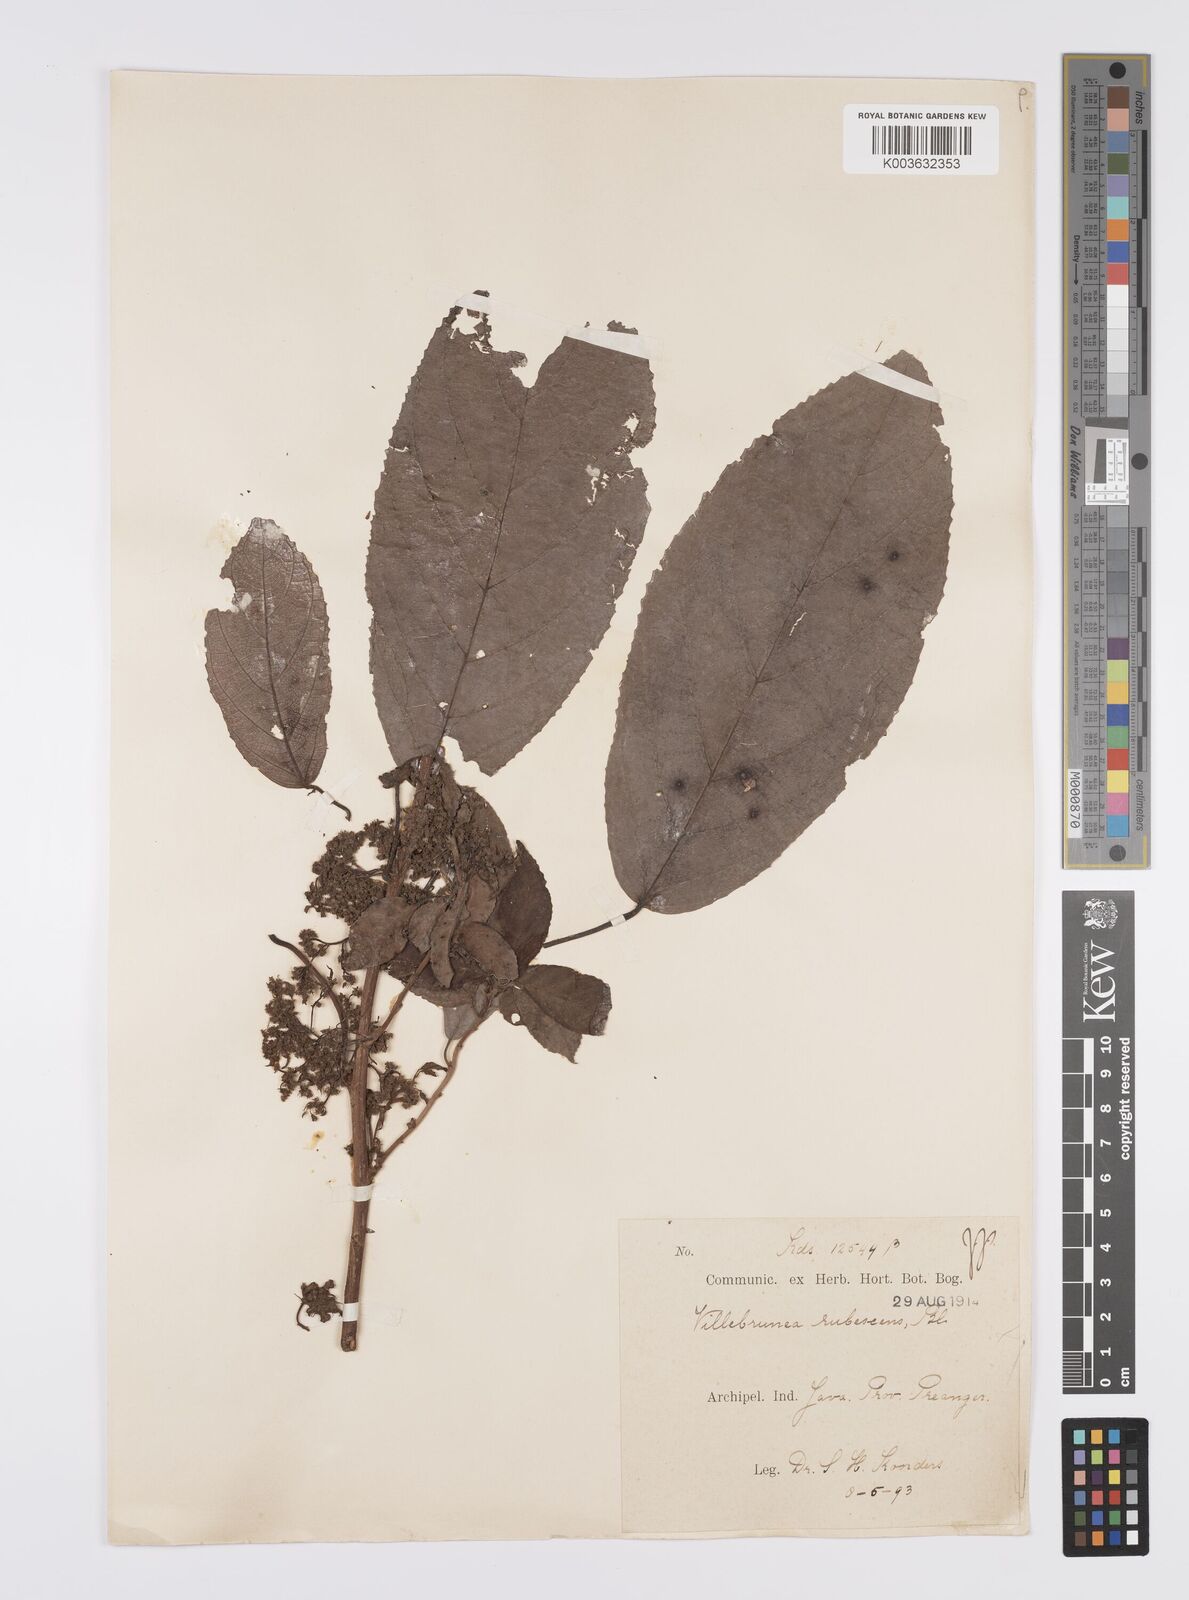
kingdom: Plantae
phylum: Tracheophyta
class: Magnoliopsida
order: Rosales
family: Urticaceae
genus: Oreocnide
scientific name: Oreocnide rubescens
